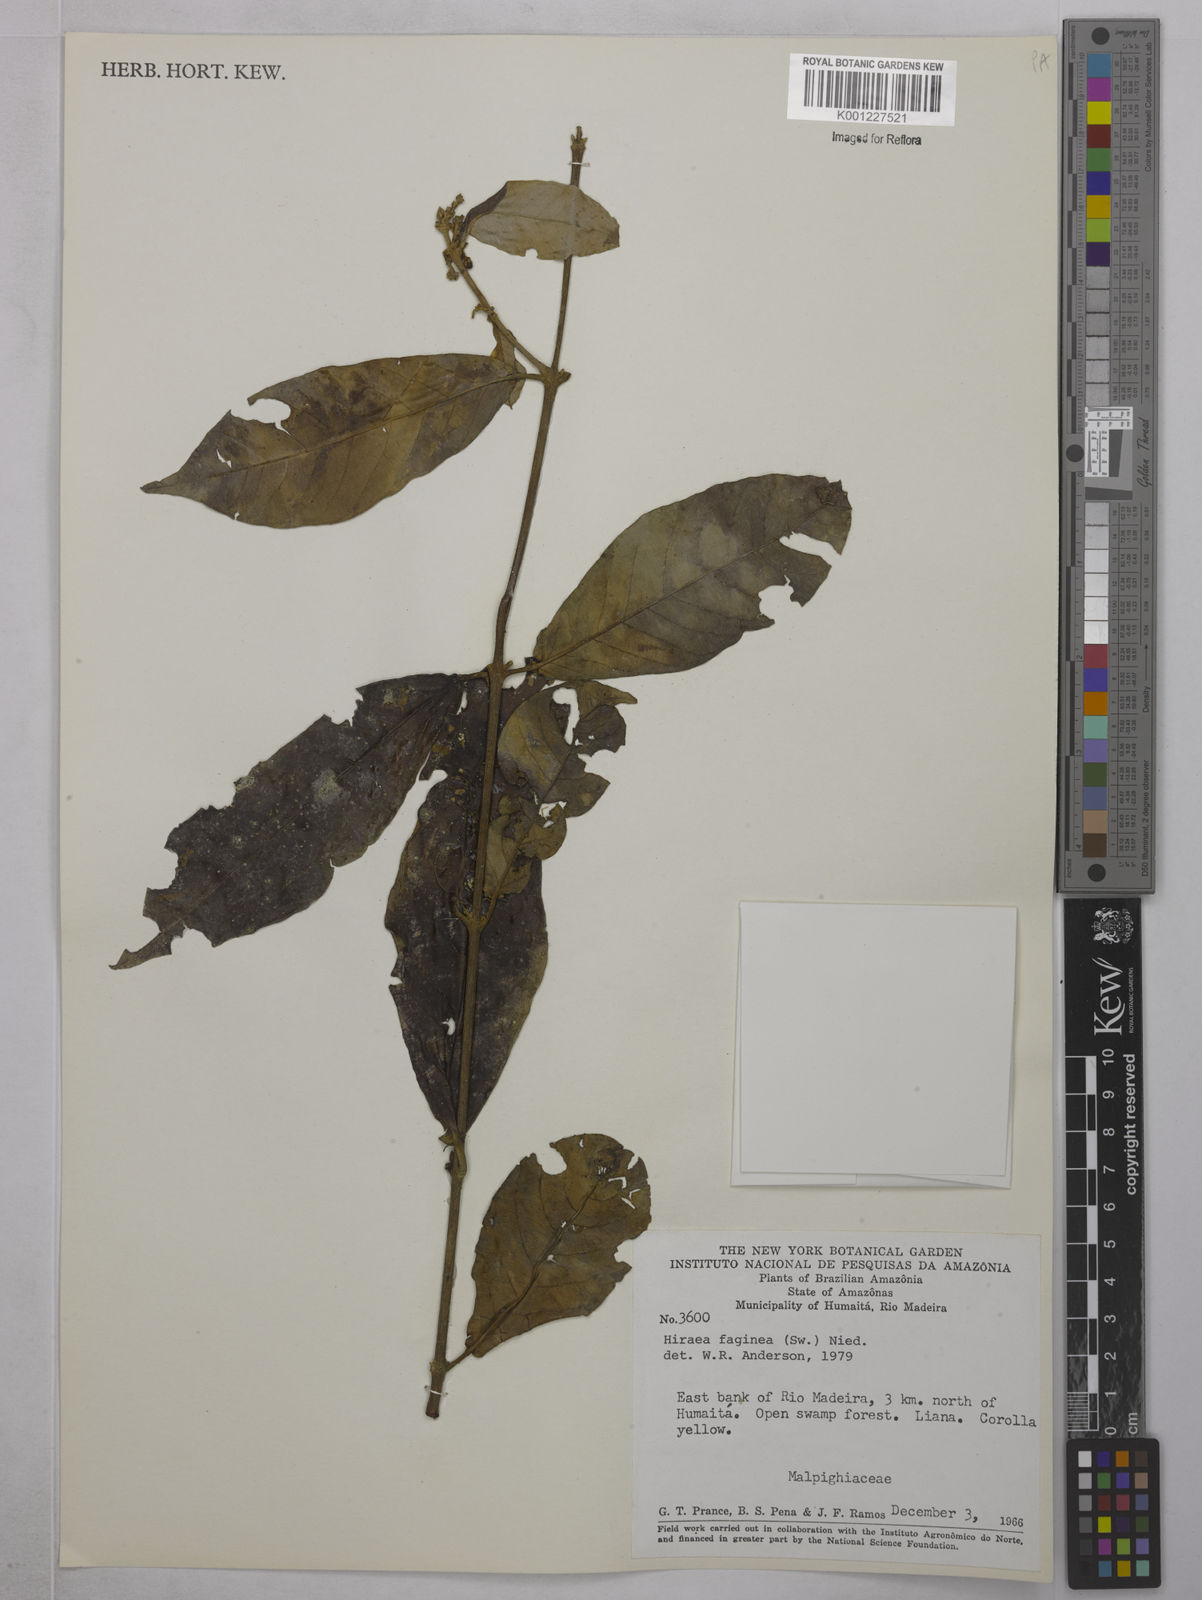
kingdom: Plantae
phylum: Tracheophyta
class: Magnoliopsida
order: Malpighiales
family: Malpighiaceae
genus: Hiraea
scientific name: Hiraea faginea
